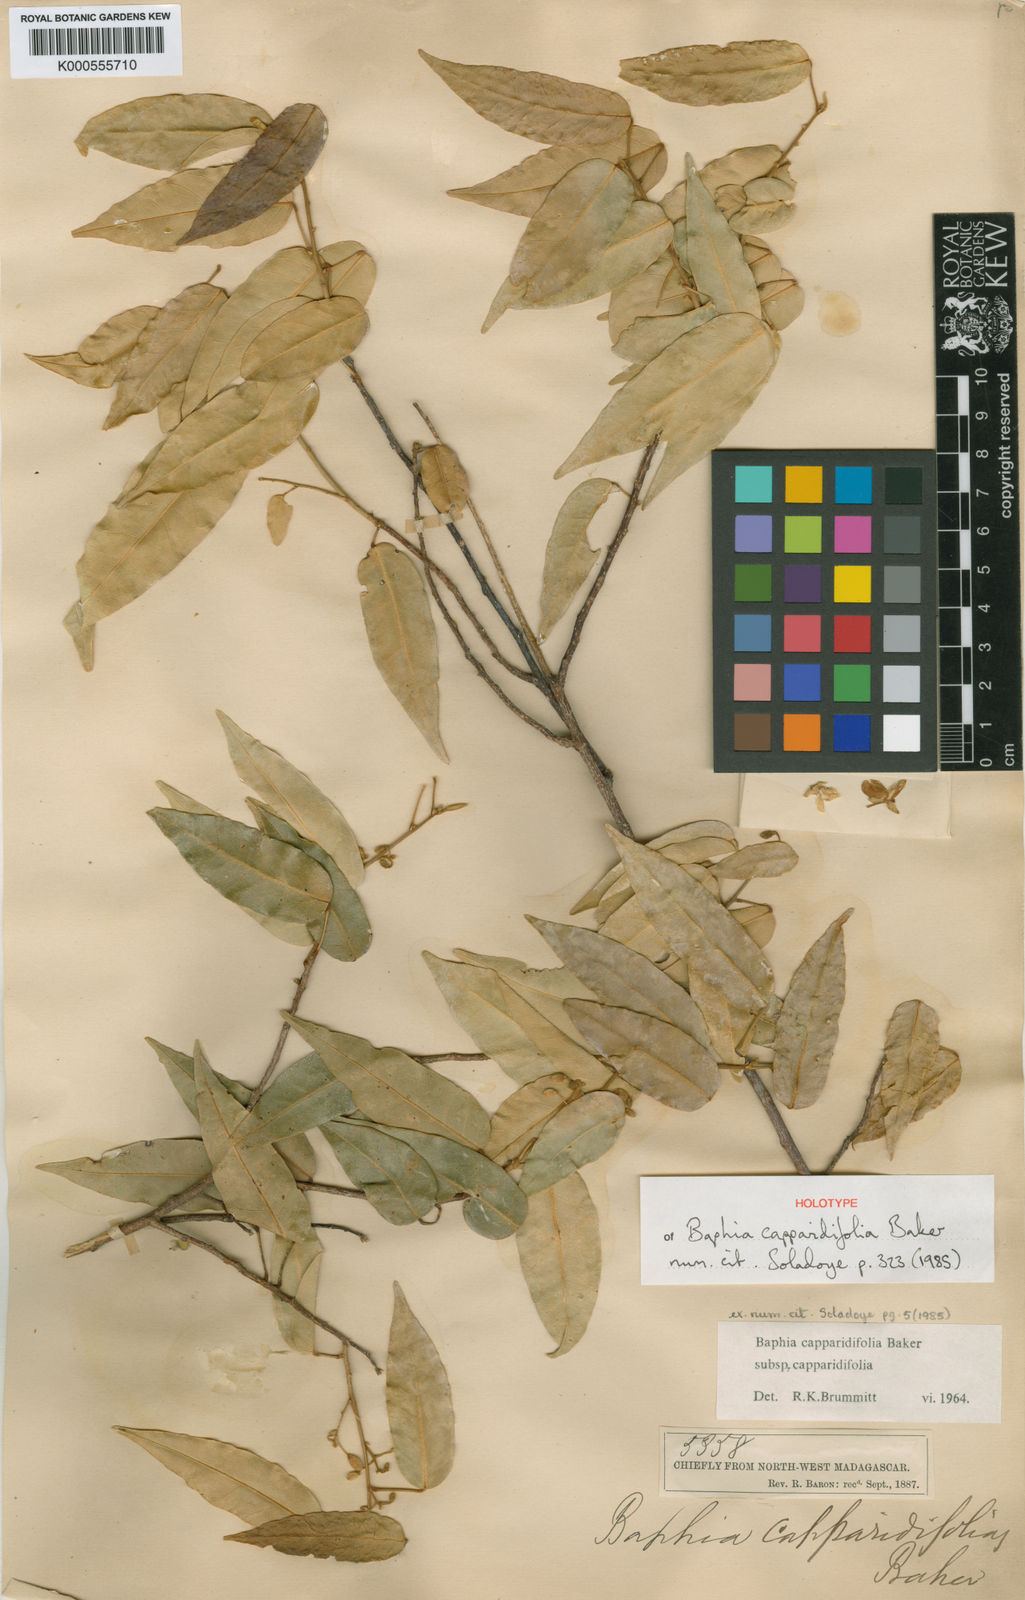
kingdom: Plantae
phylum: Tracheophyta
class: Magnoliopsida
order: Fabales
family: Fabaceae
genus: Baphia
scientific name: Baphia capparidifolia
